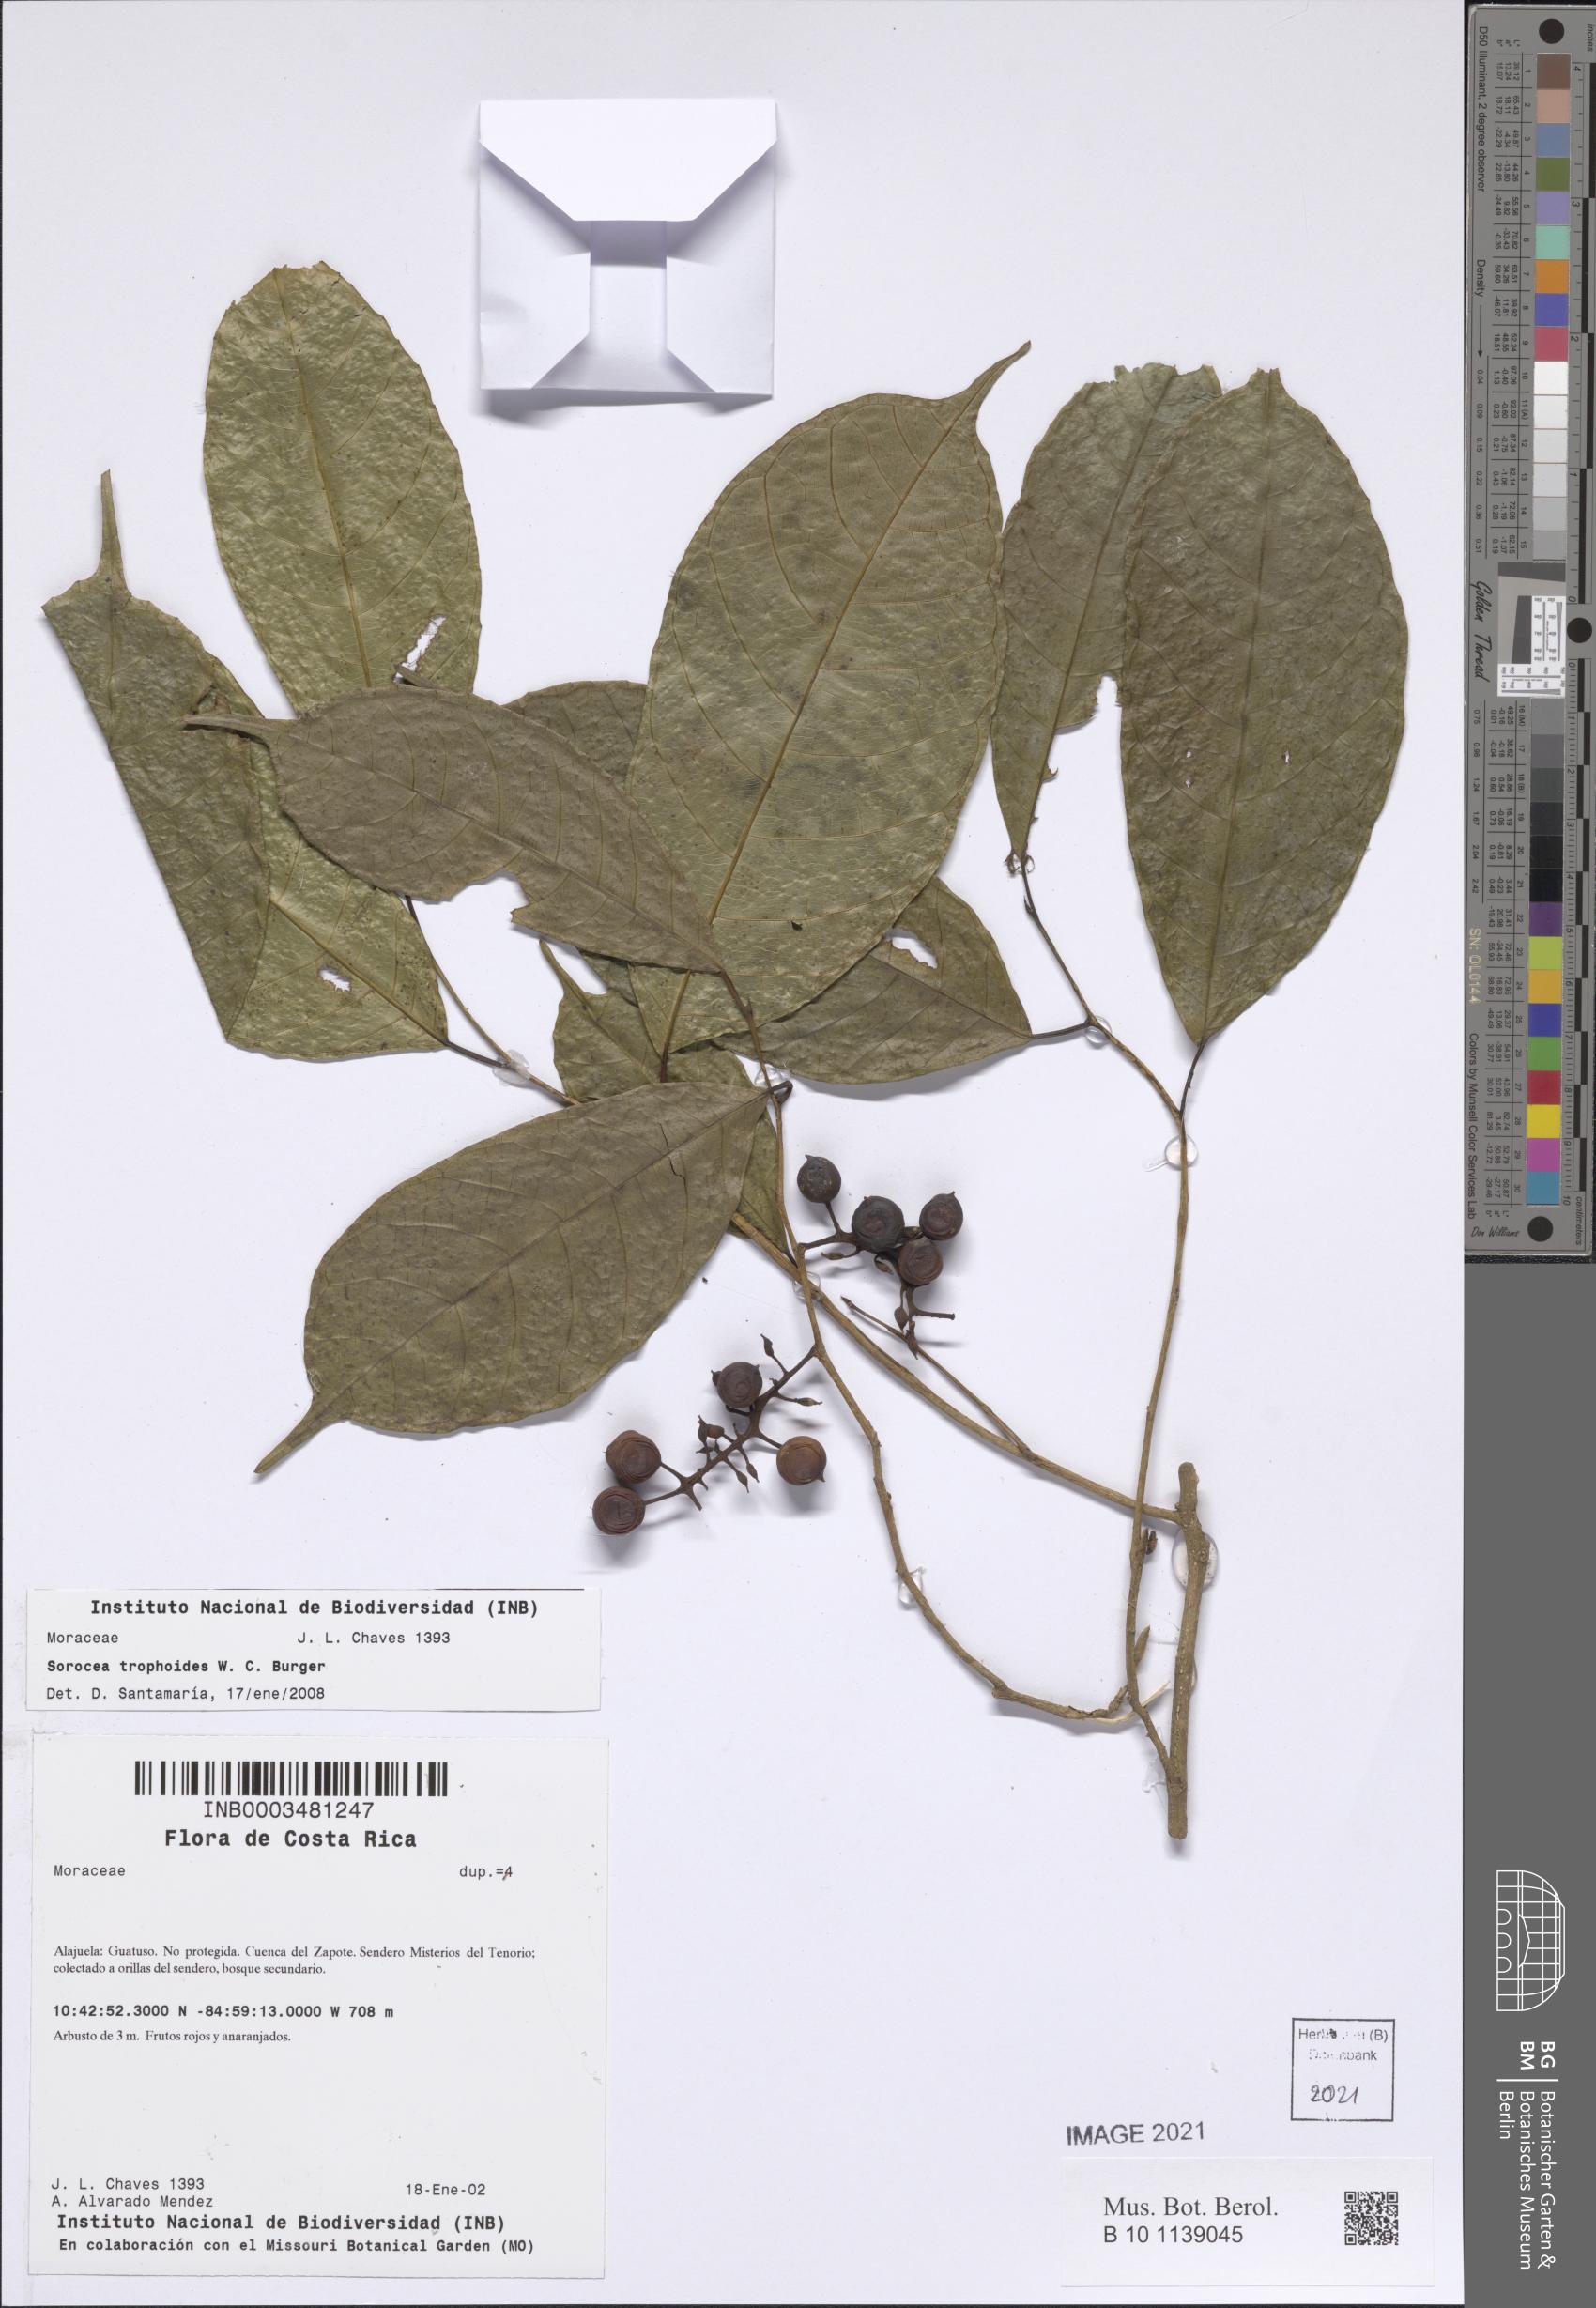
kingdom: Plantae
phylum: Tracheophyta
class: Magnoliopsida
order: Rosales
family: Moraceae
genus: Sorocea
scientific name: Sorocea trophoides
